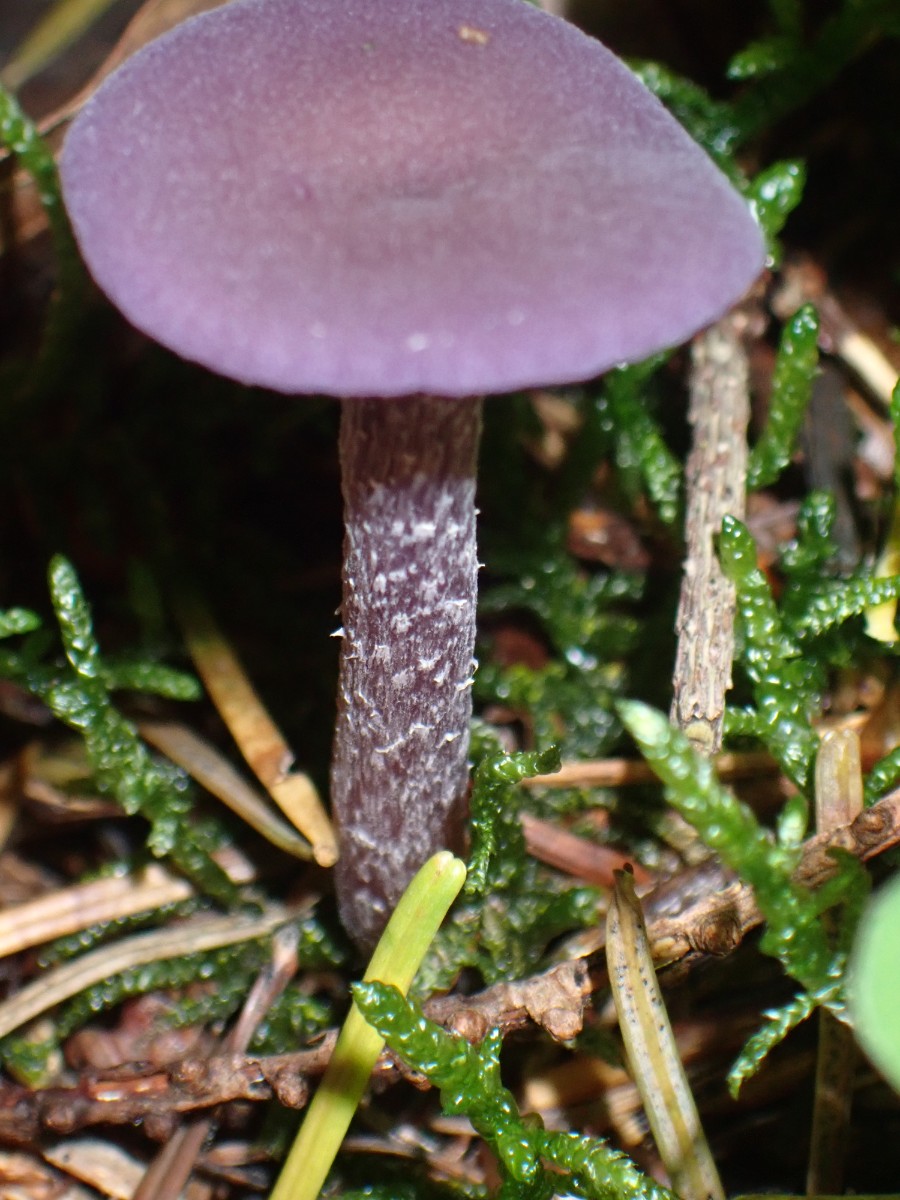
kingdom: Fungi
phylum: Basidiomycota
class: Agaricomycetes
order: Agaricales
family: Hydnangiaceae
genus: Laccaria
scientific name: Laccaria amethystina
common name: violet ametysthat
